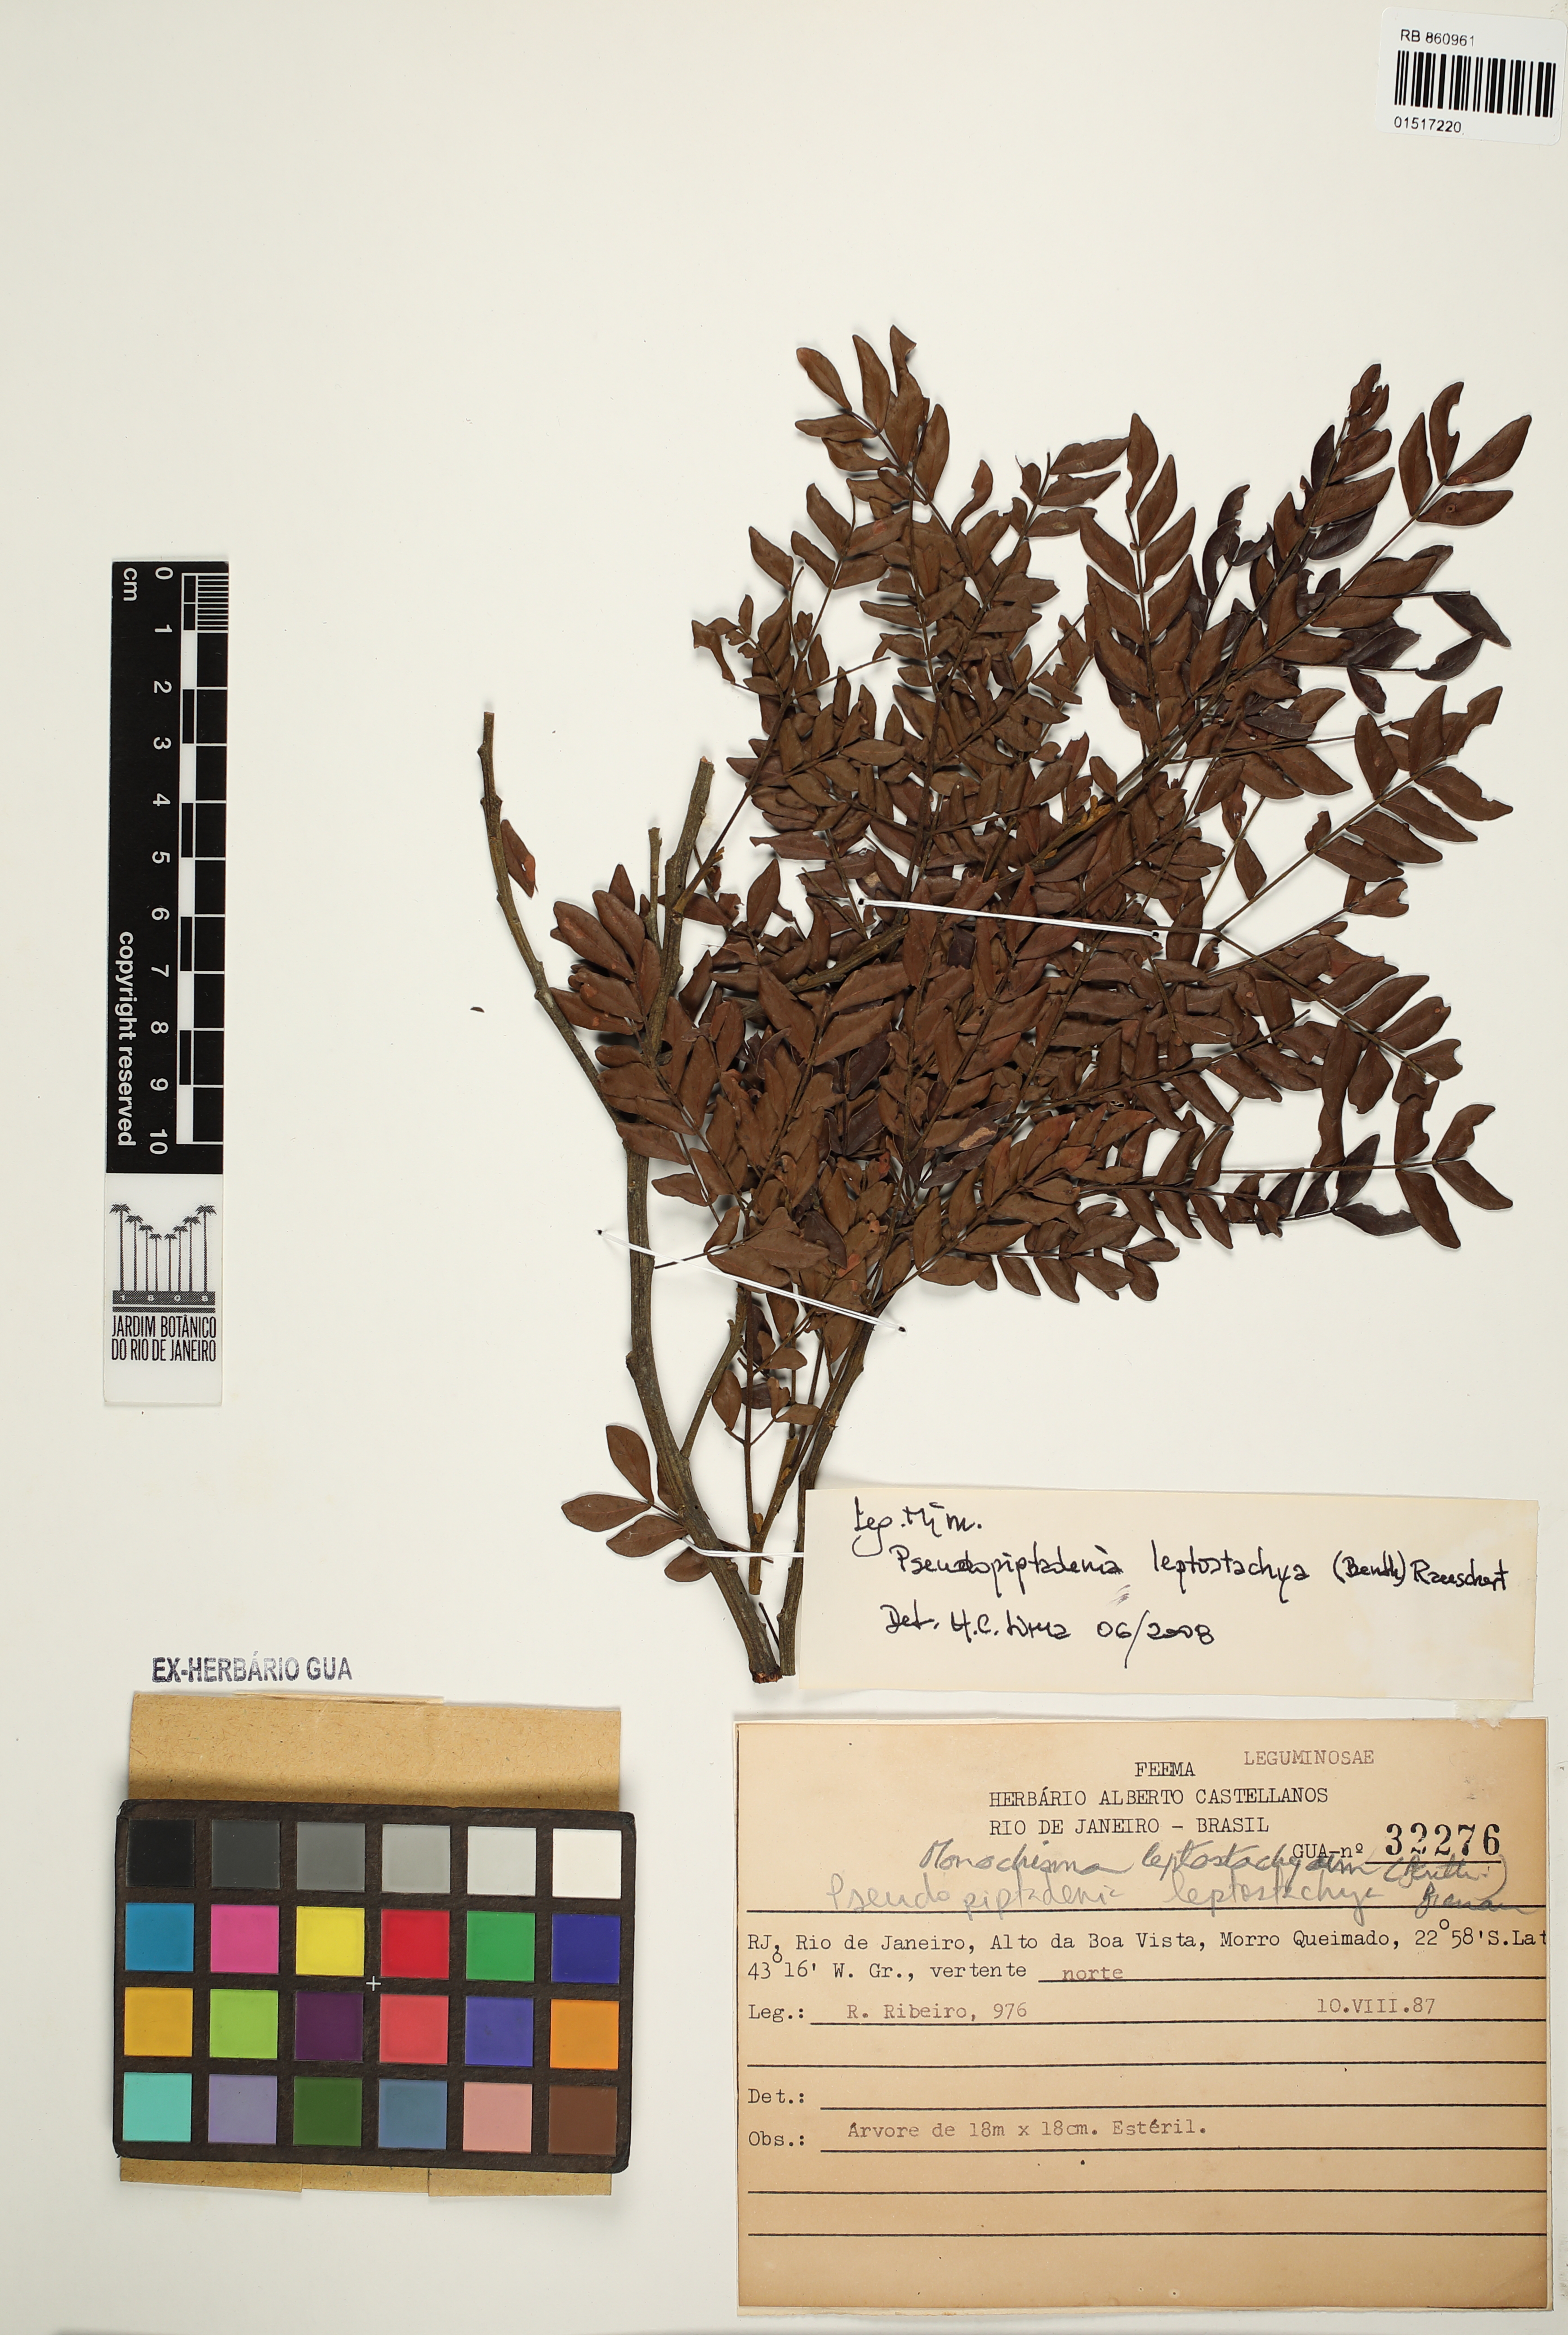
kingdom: Plantae
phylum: Tracheophyta
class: Magnoliopsida
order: Fabales
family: Fabaceae
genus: Pseudopiptadenia
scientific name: Pseudopiptadenia leptostachya
